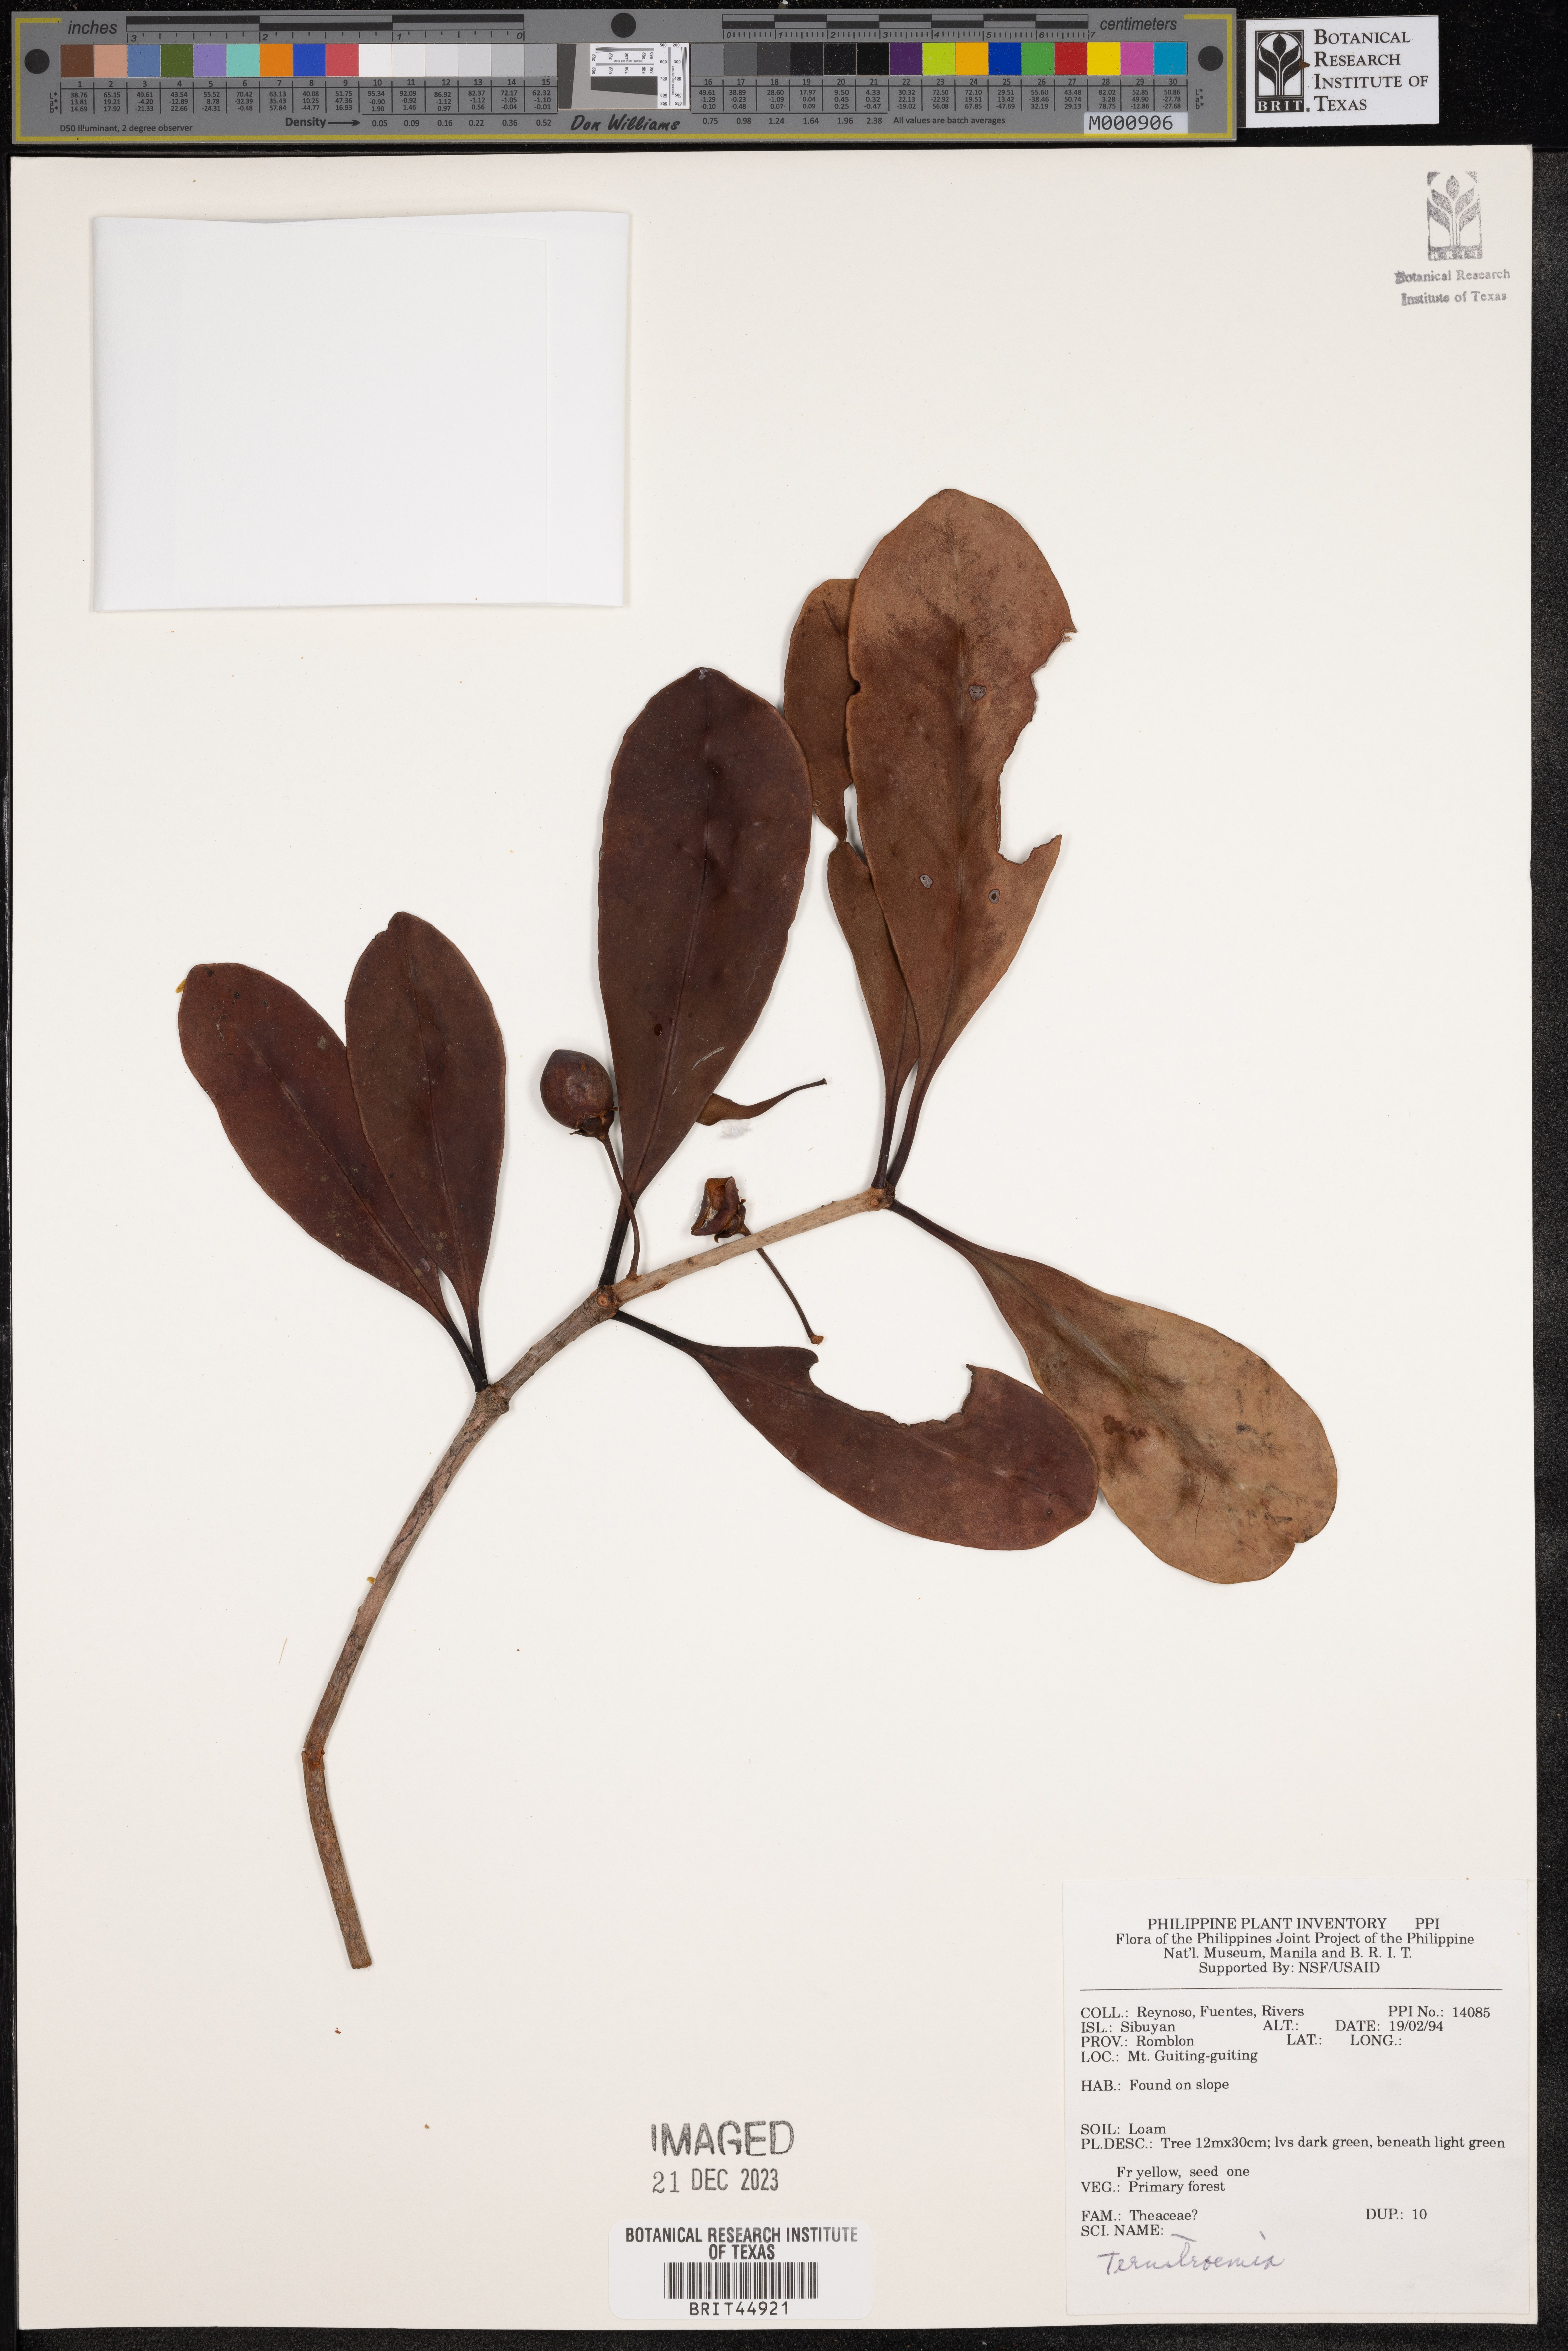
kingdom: Plantae
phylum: Tracheophyta
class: Magnoliopsida
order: Ericales
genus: Ternstroemia
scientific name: Ternstroemia
